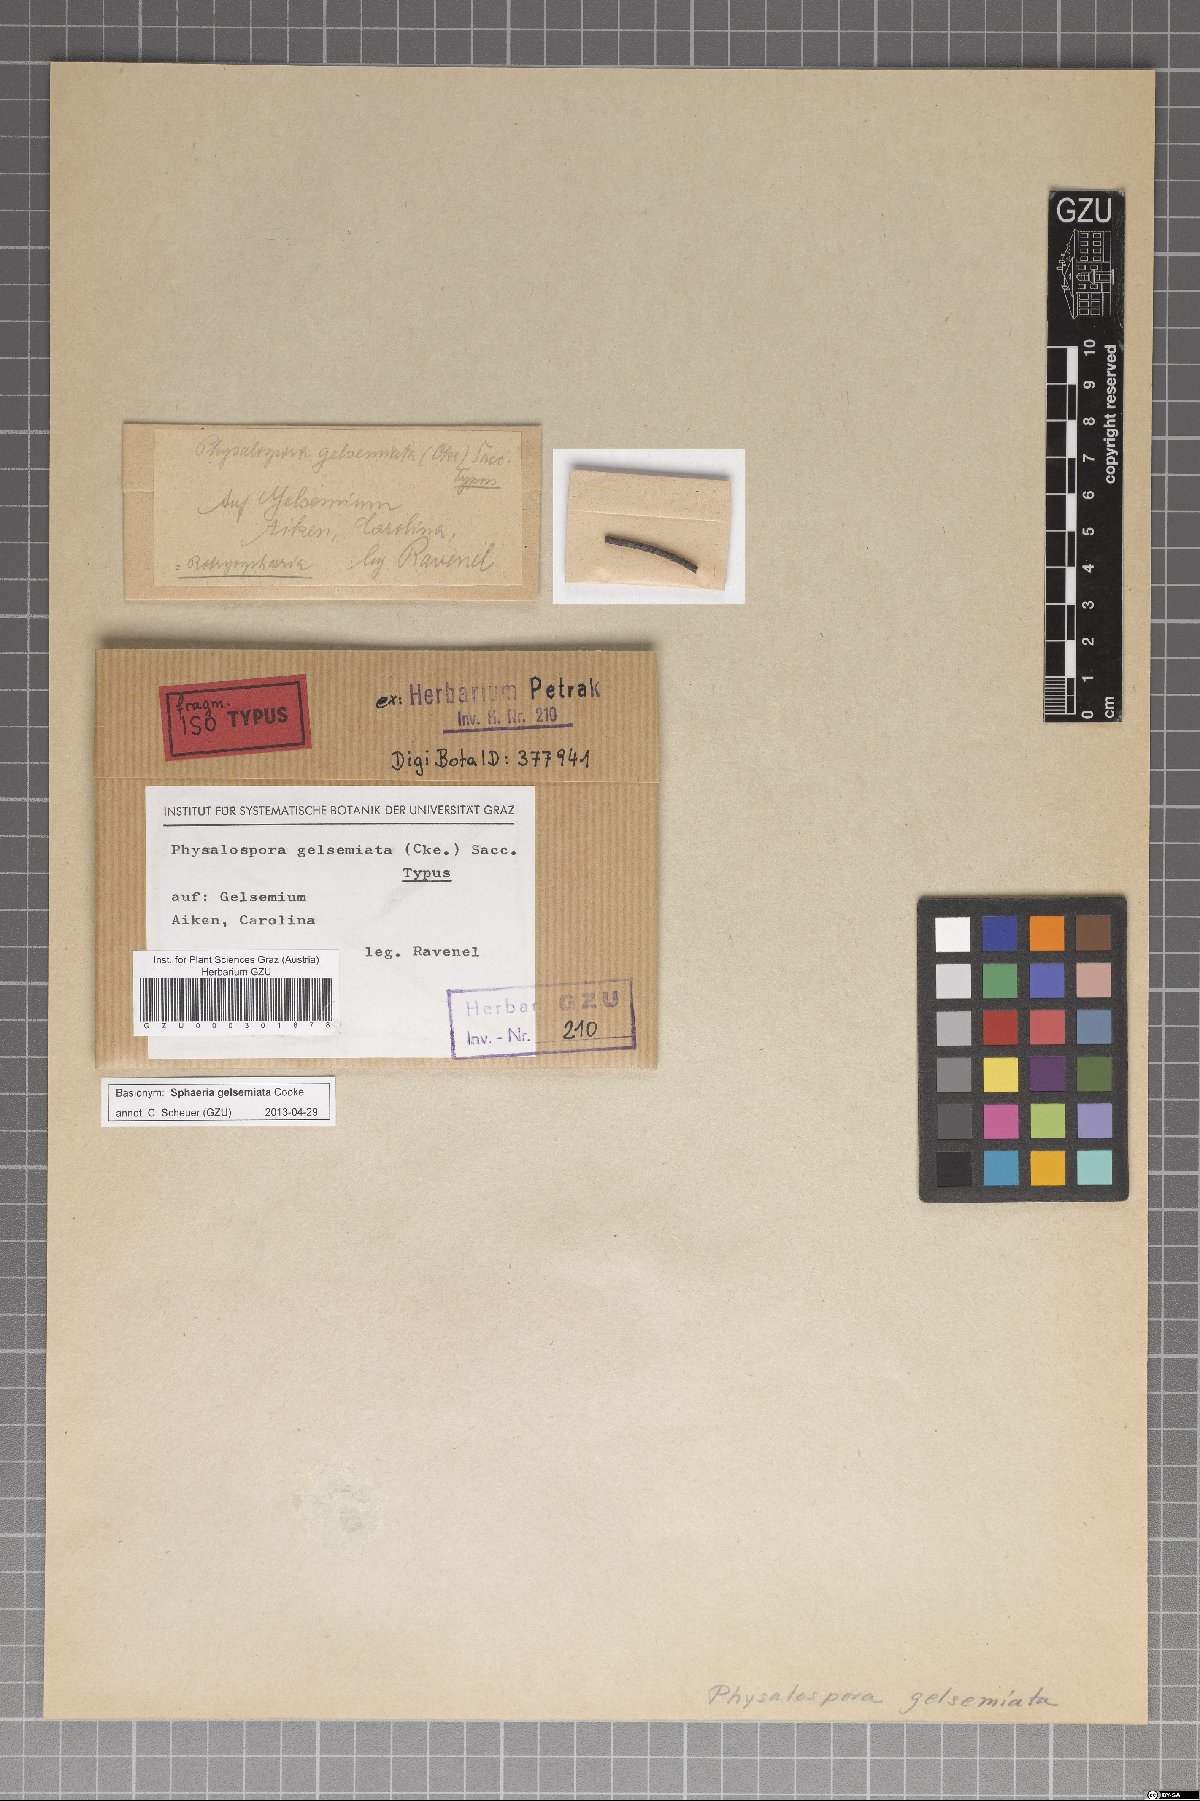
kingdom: Fungi
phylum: Ascomycota
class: Dothideomycetes
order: Botryosphaeriales
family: Botryosphaeriaceae
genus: Melanops
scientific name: Melanops gelsemiata
